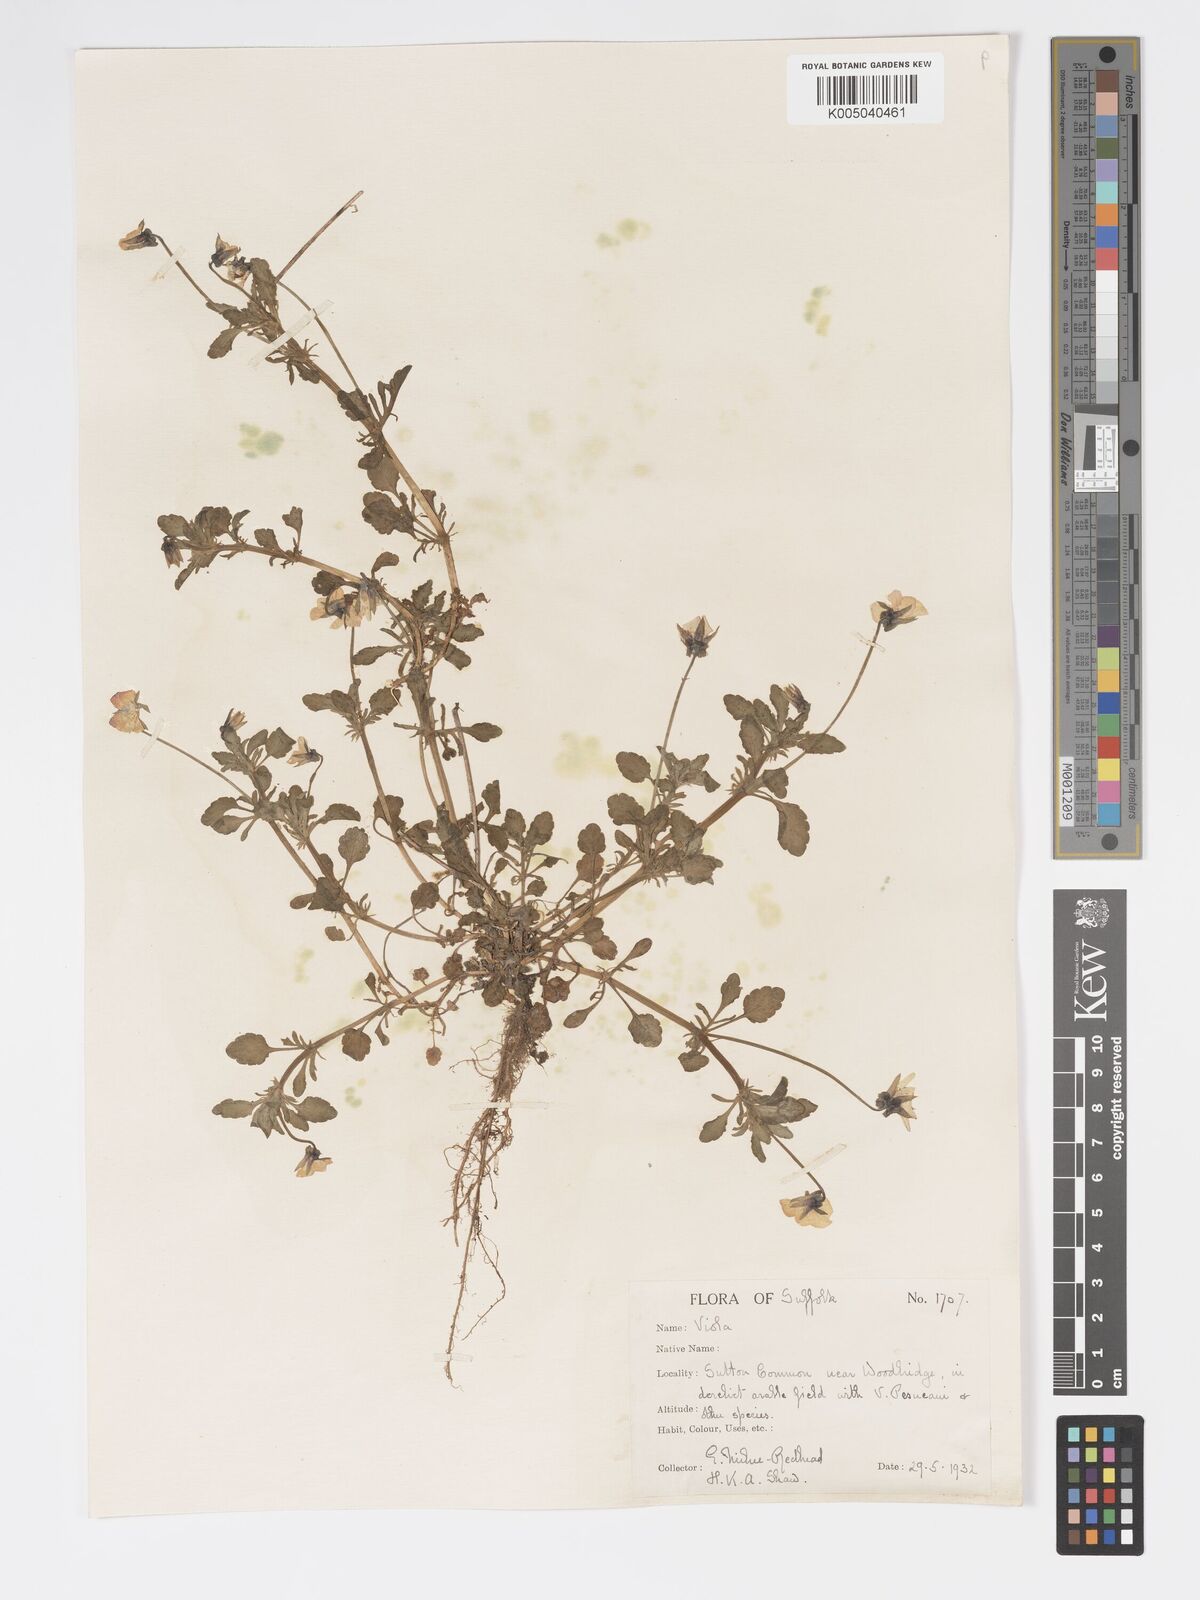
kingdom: Plantae
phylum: Tracheophyta
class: Magnoliopsida
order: Malpighiales
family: Violaceae
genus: Viola
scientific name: Viola arvensis
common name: Field pansy
